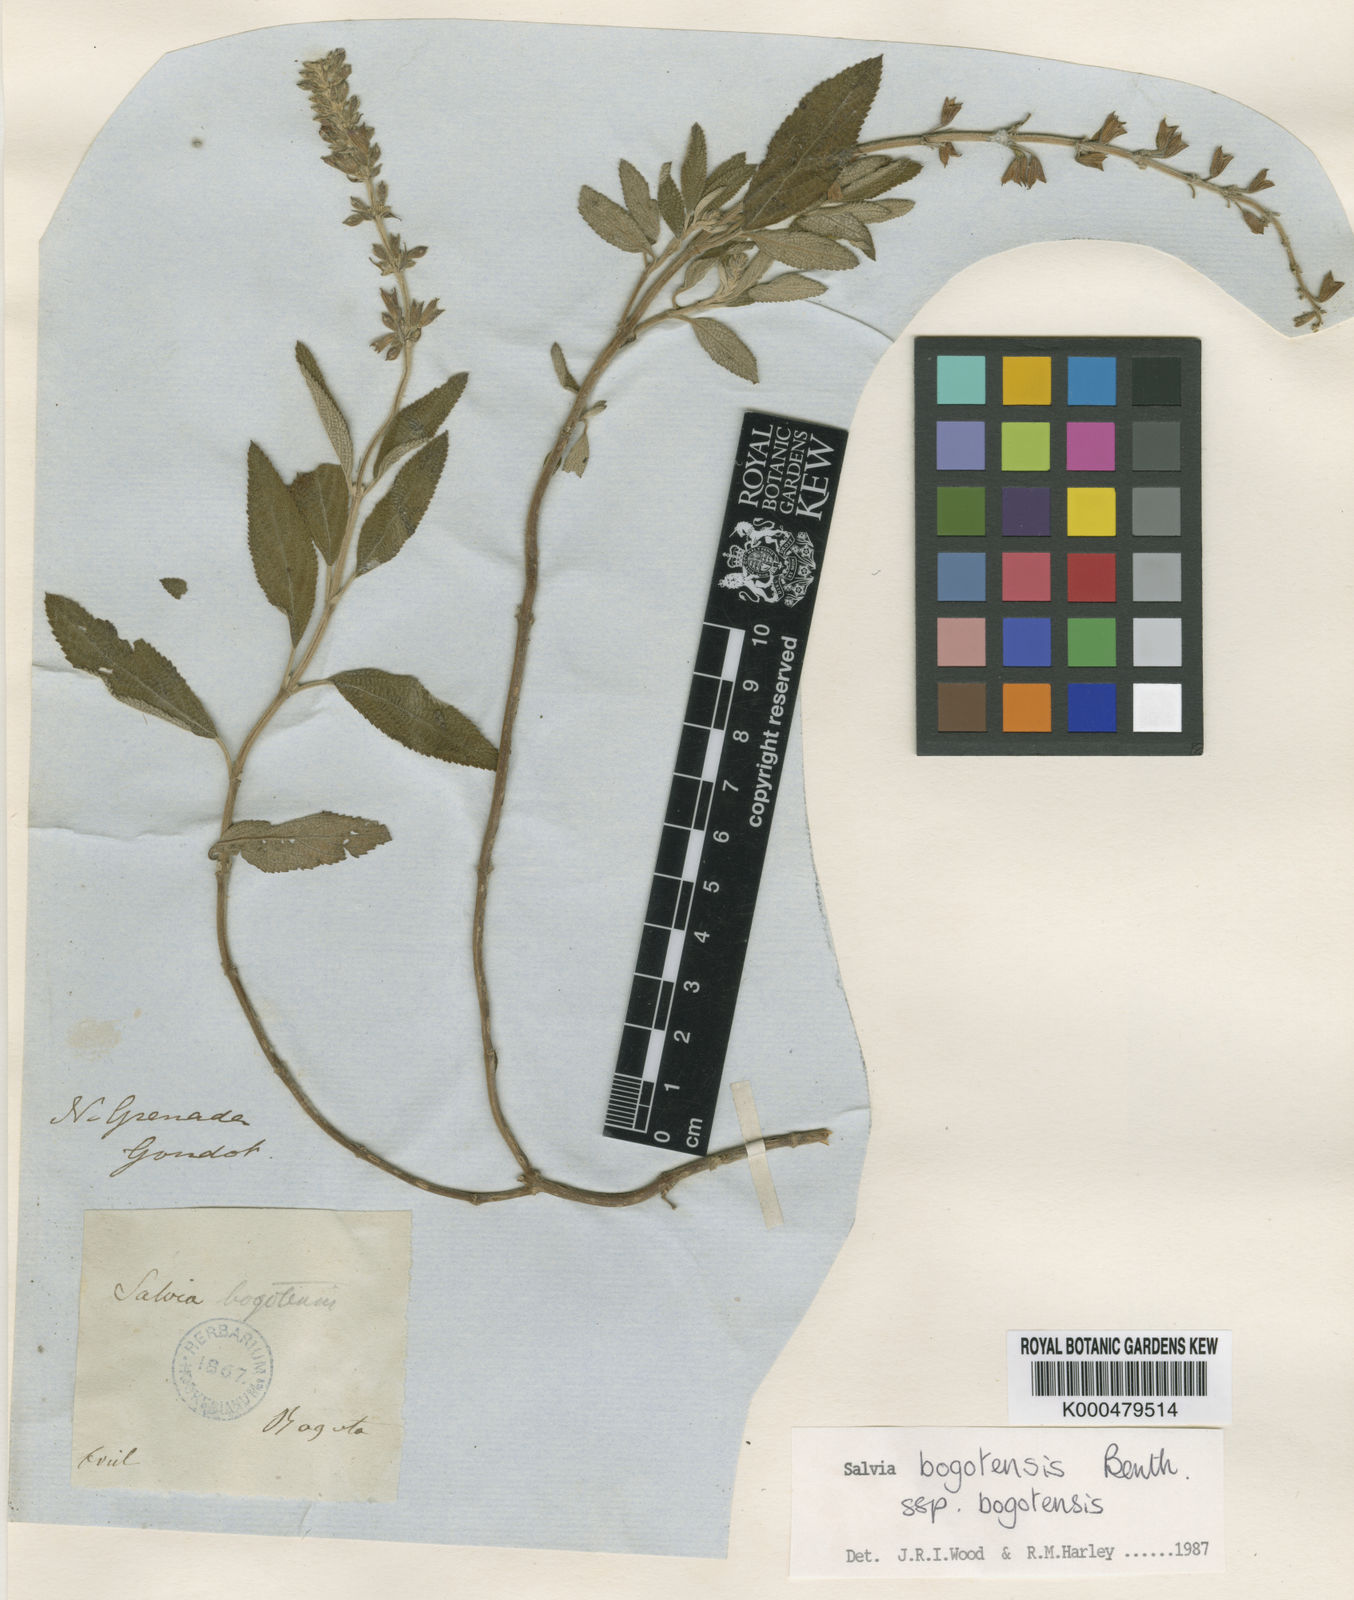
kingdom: Plantae
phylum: Tracheophyta
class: Magnoliopsida
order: Lamiales
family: Lamiaceae
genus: Salvia
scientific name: Salvia bogotensis
